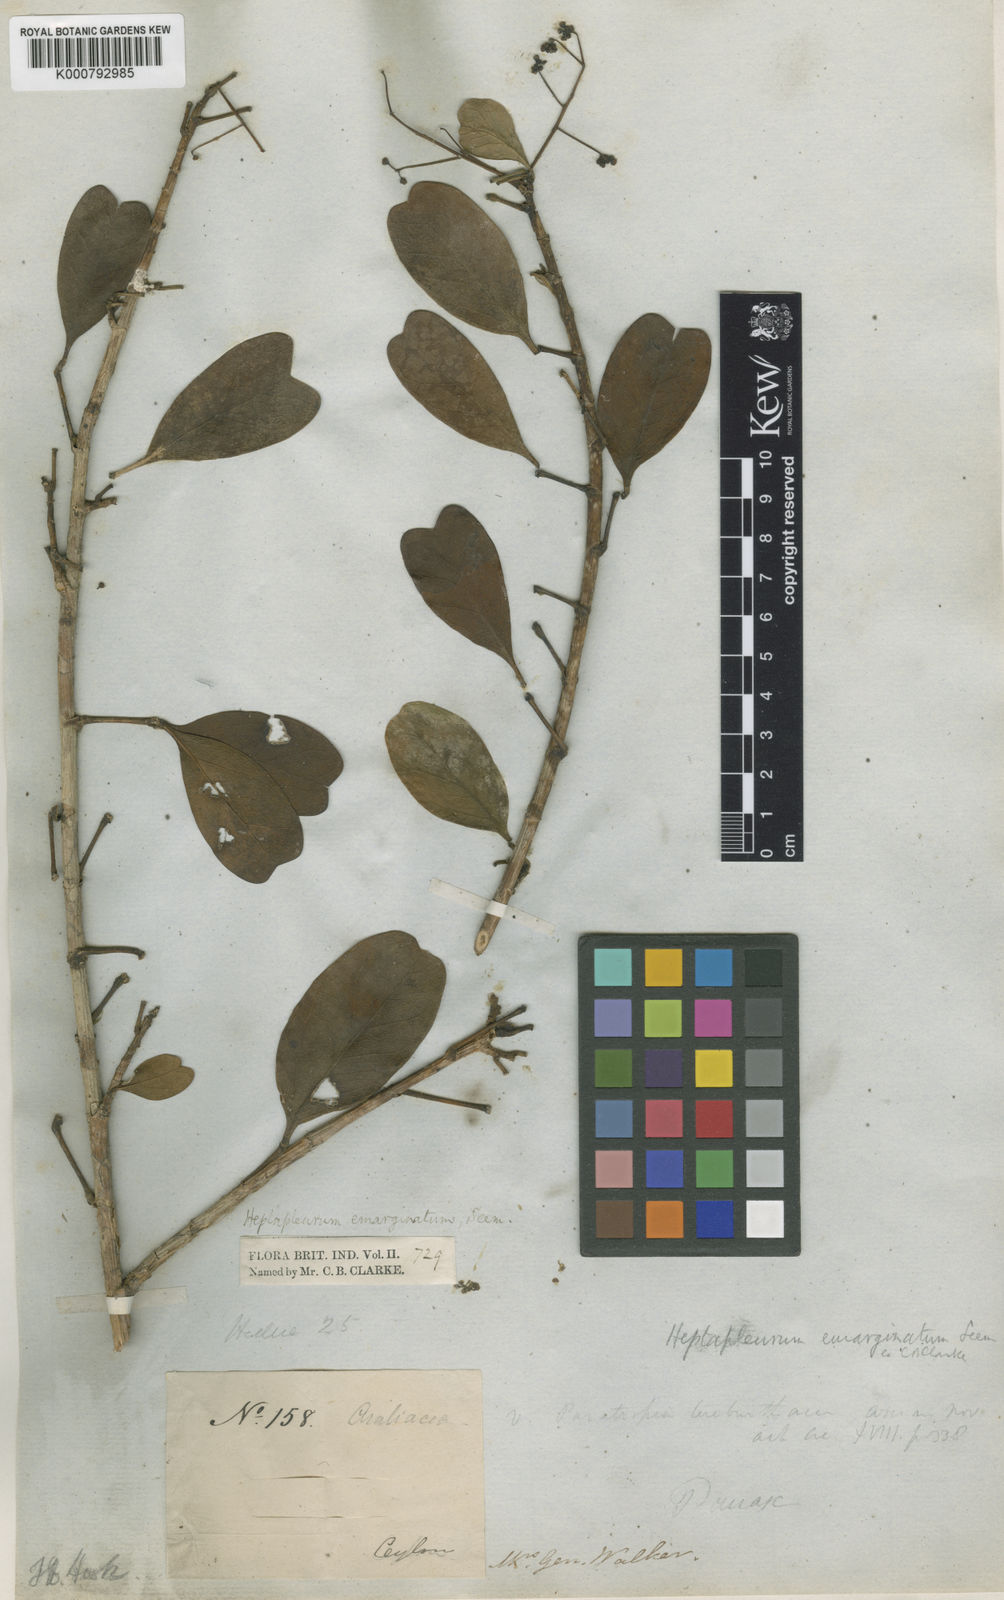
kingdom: Plantae
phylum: Tracheophyta
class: Magnoliopsida
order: Apiales
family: Araliaceae
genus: Heptapleurum
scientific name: Heptapleurum emarginatum
